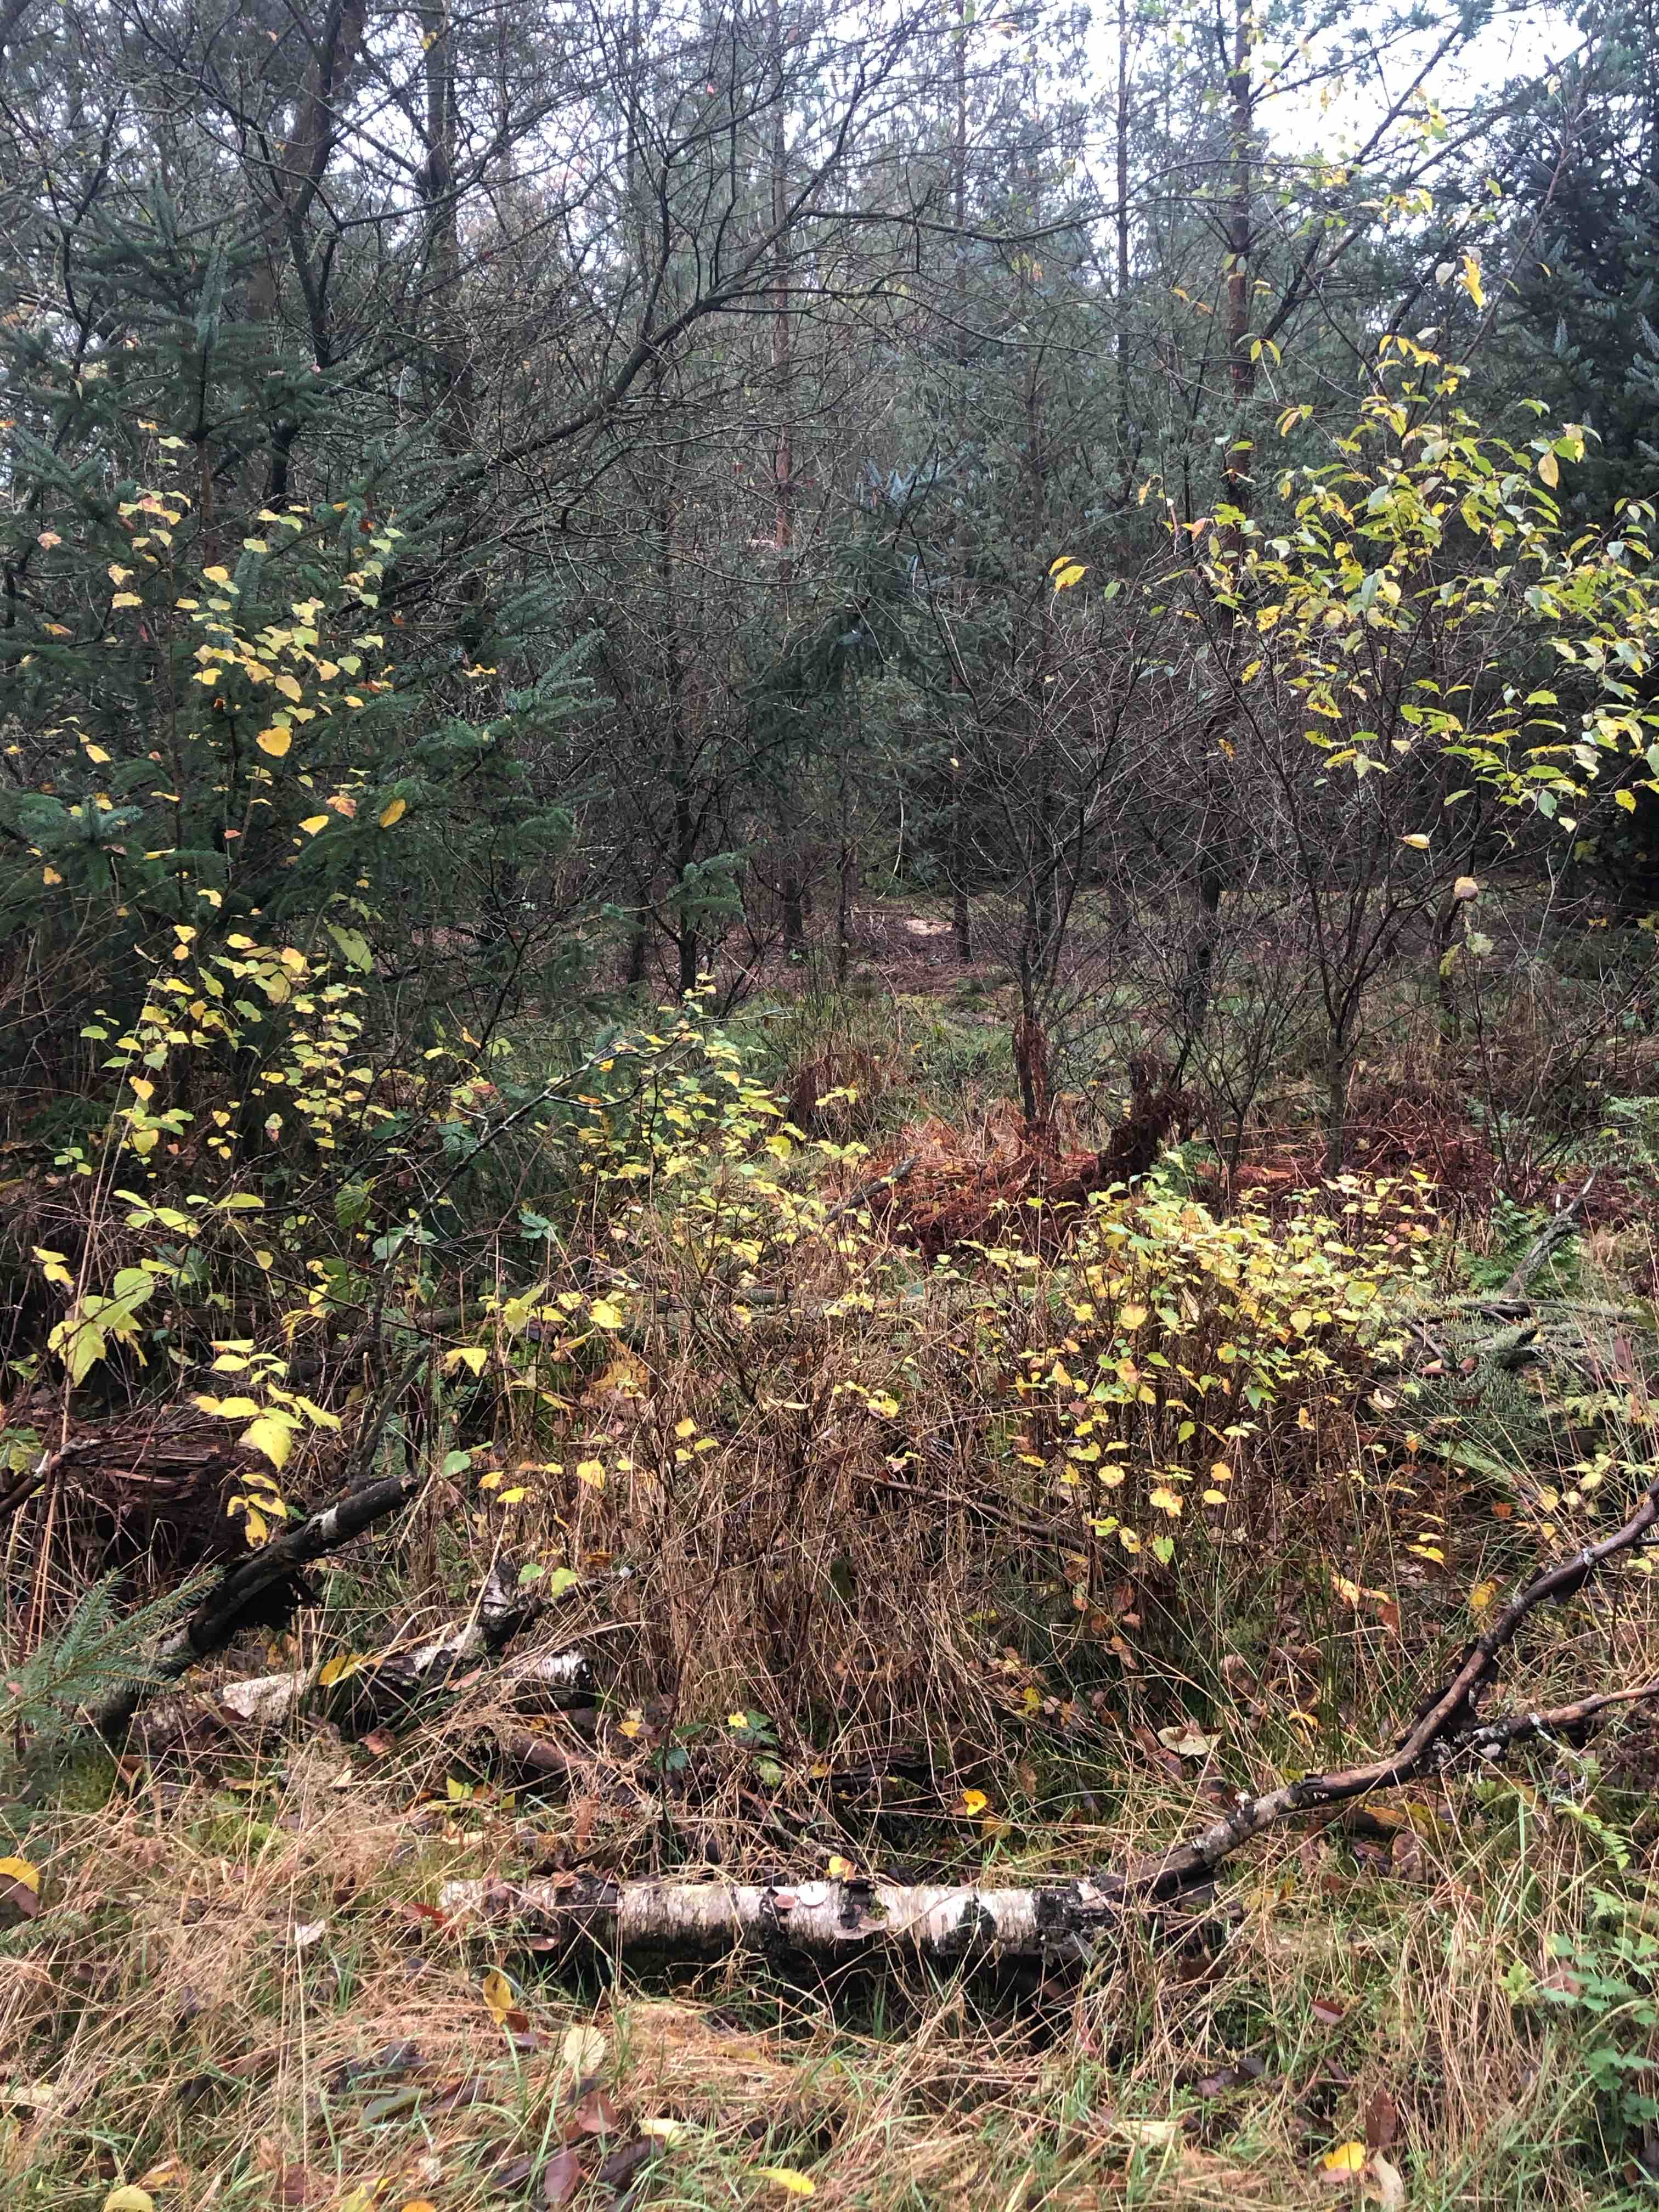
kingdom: Fungi
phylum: Basidiomycota
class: Agaricomycetes
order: Polyporales
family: Polyporaceae
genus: Lentinus
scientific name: Lentinus brumalis
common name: vinter-stilkporesvamp
